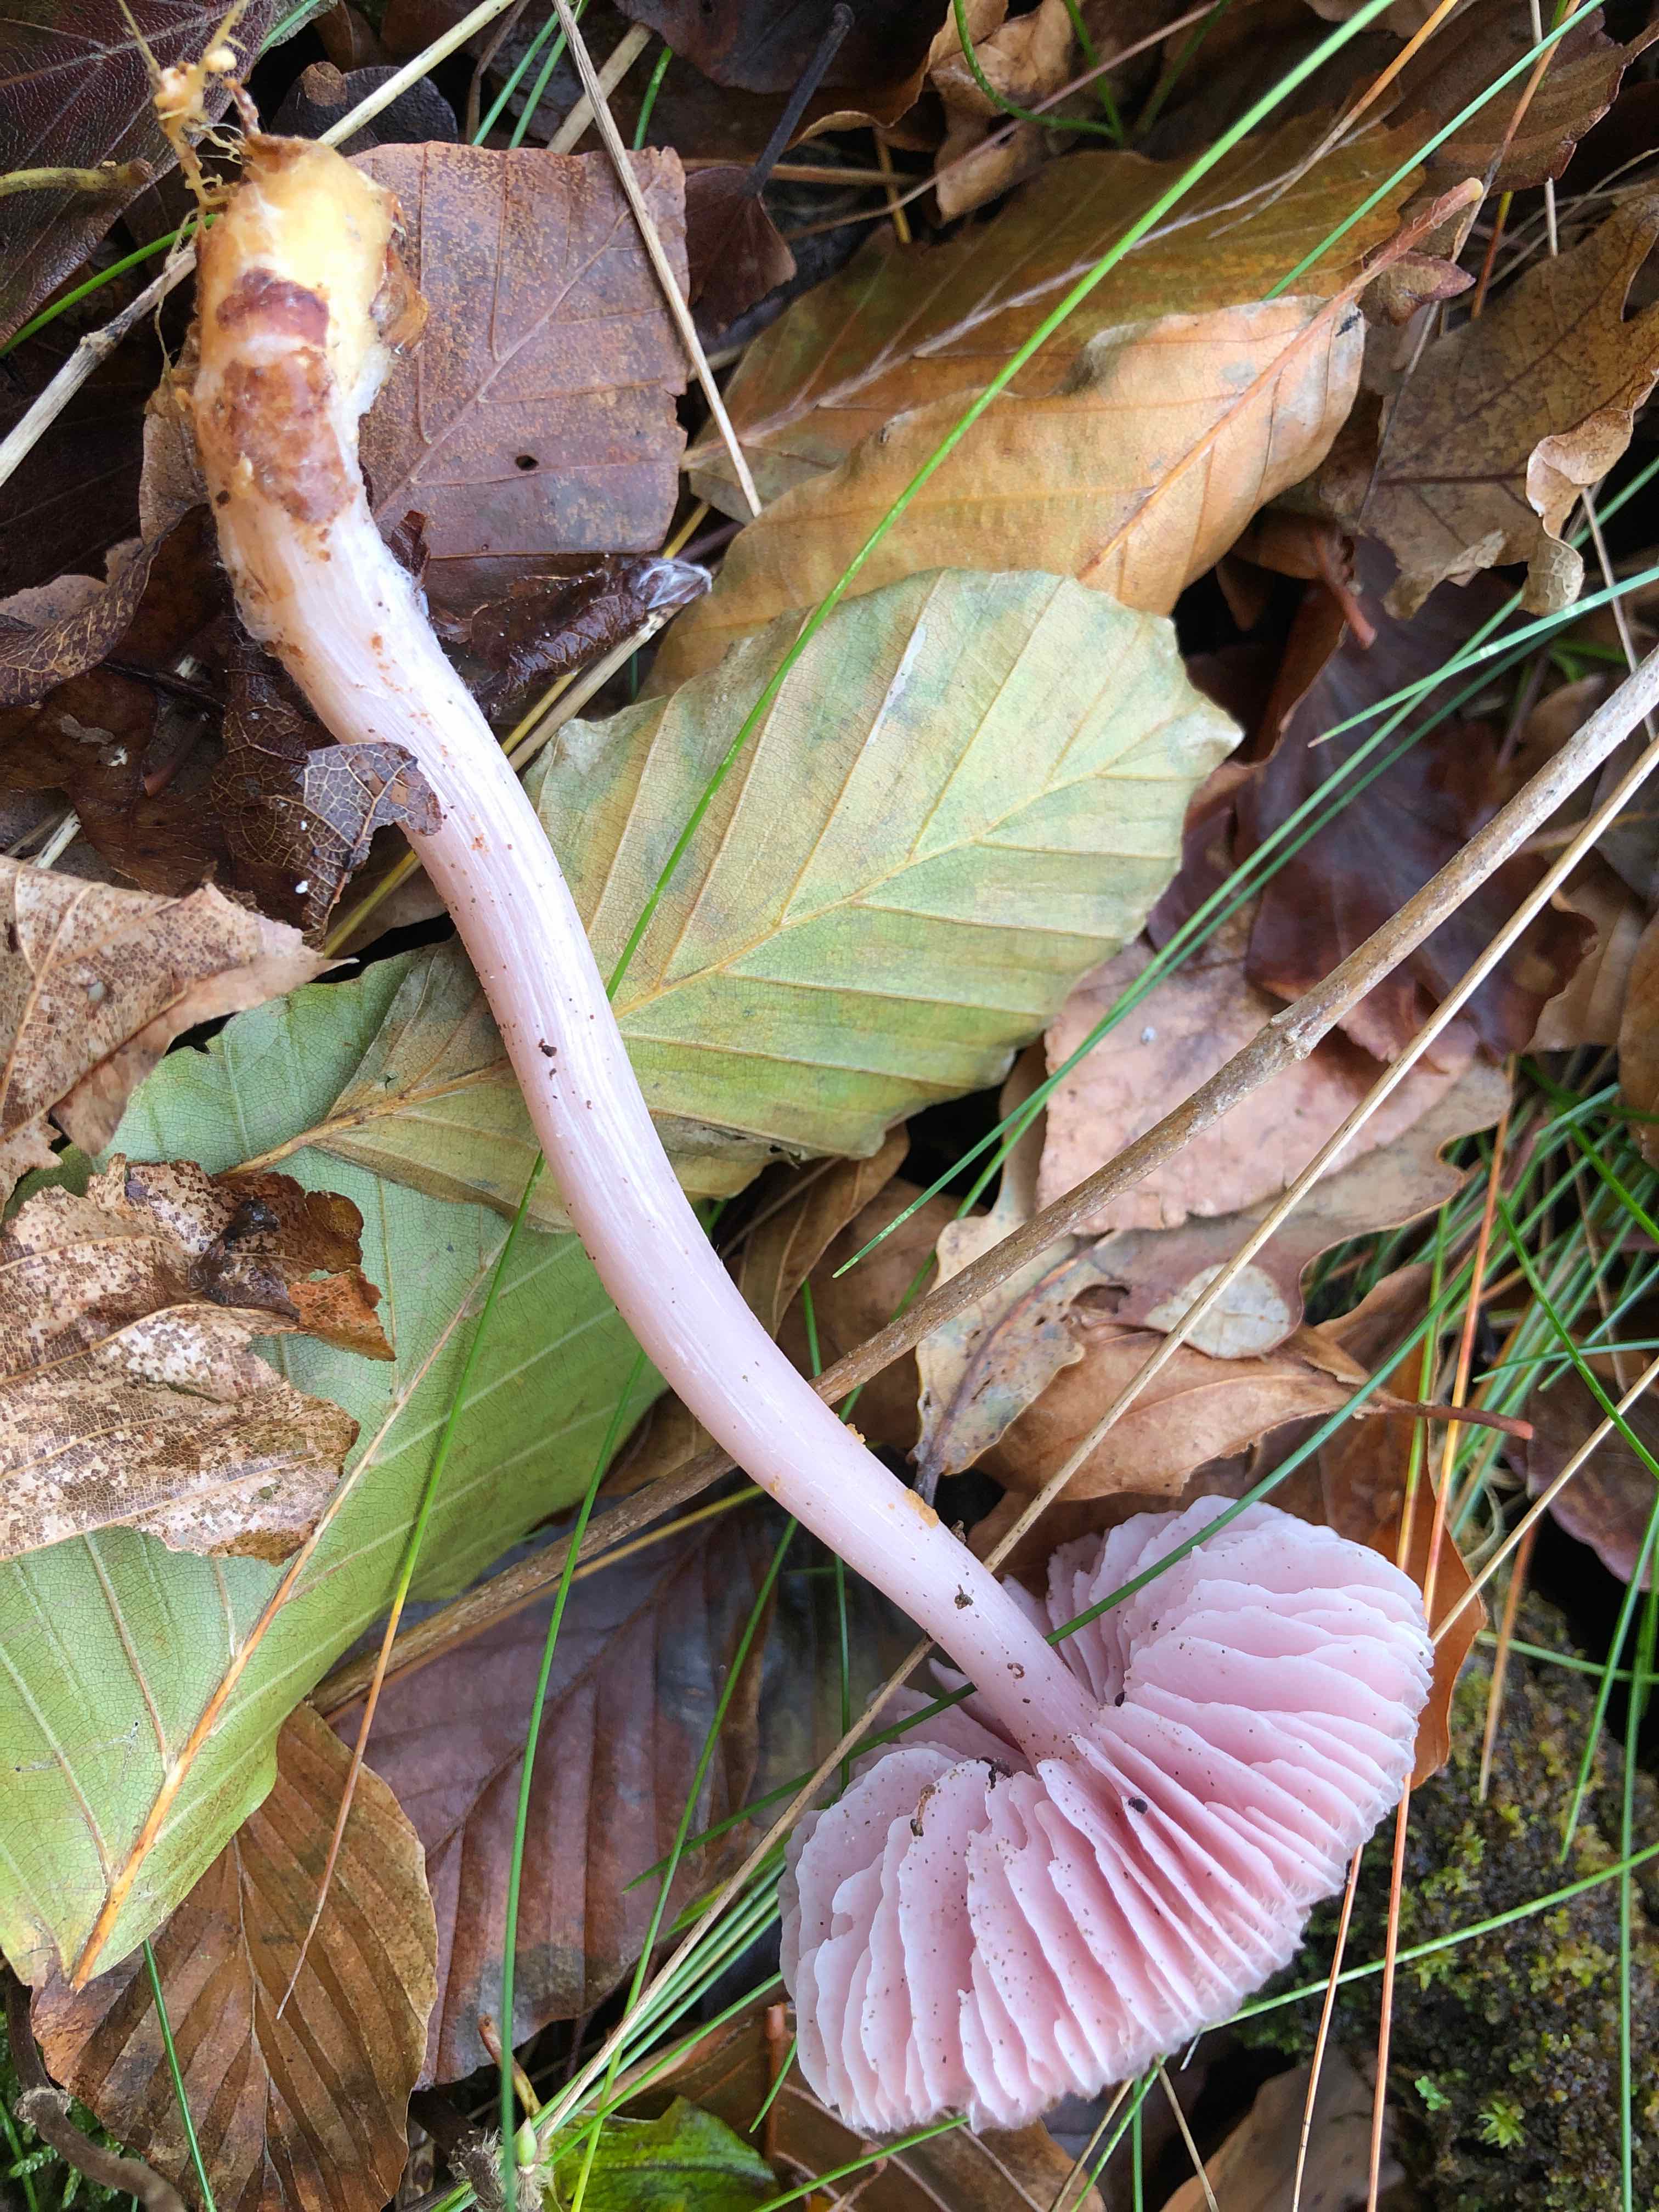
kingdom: Fungi
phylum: Basidiomycota
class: Agaricomycetes
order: Agaricales
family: Mycenaceae
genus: Mycena
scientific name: Mycena rosea
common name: rosa huesvamp
